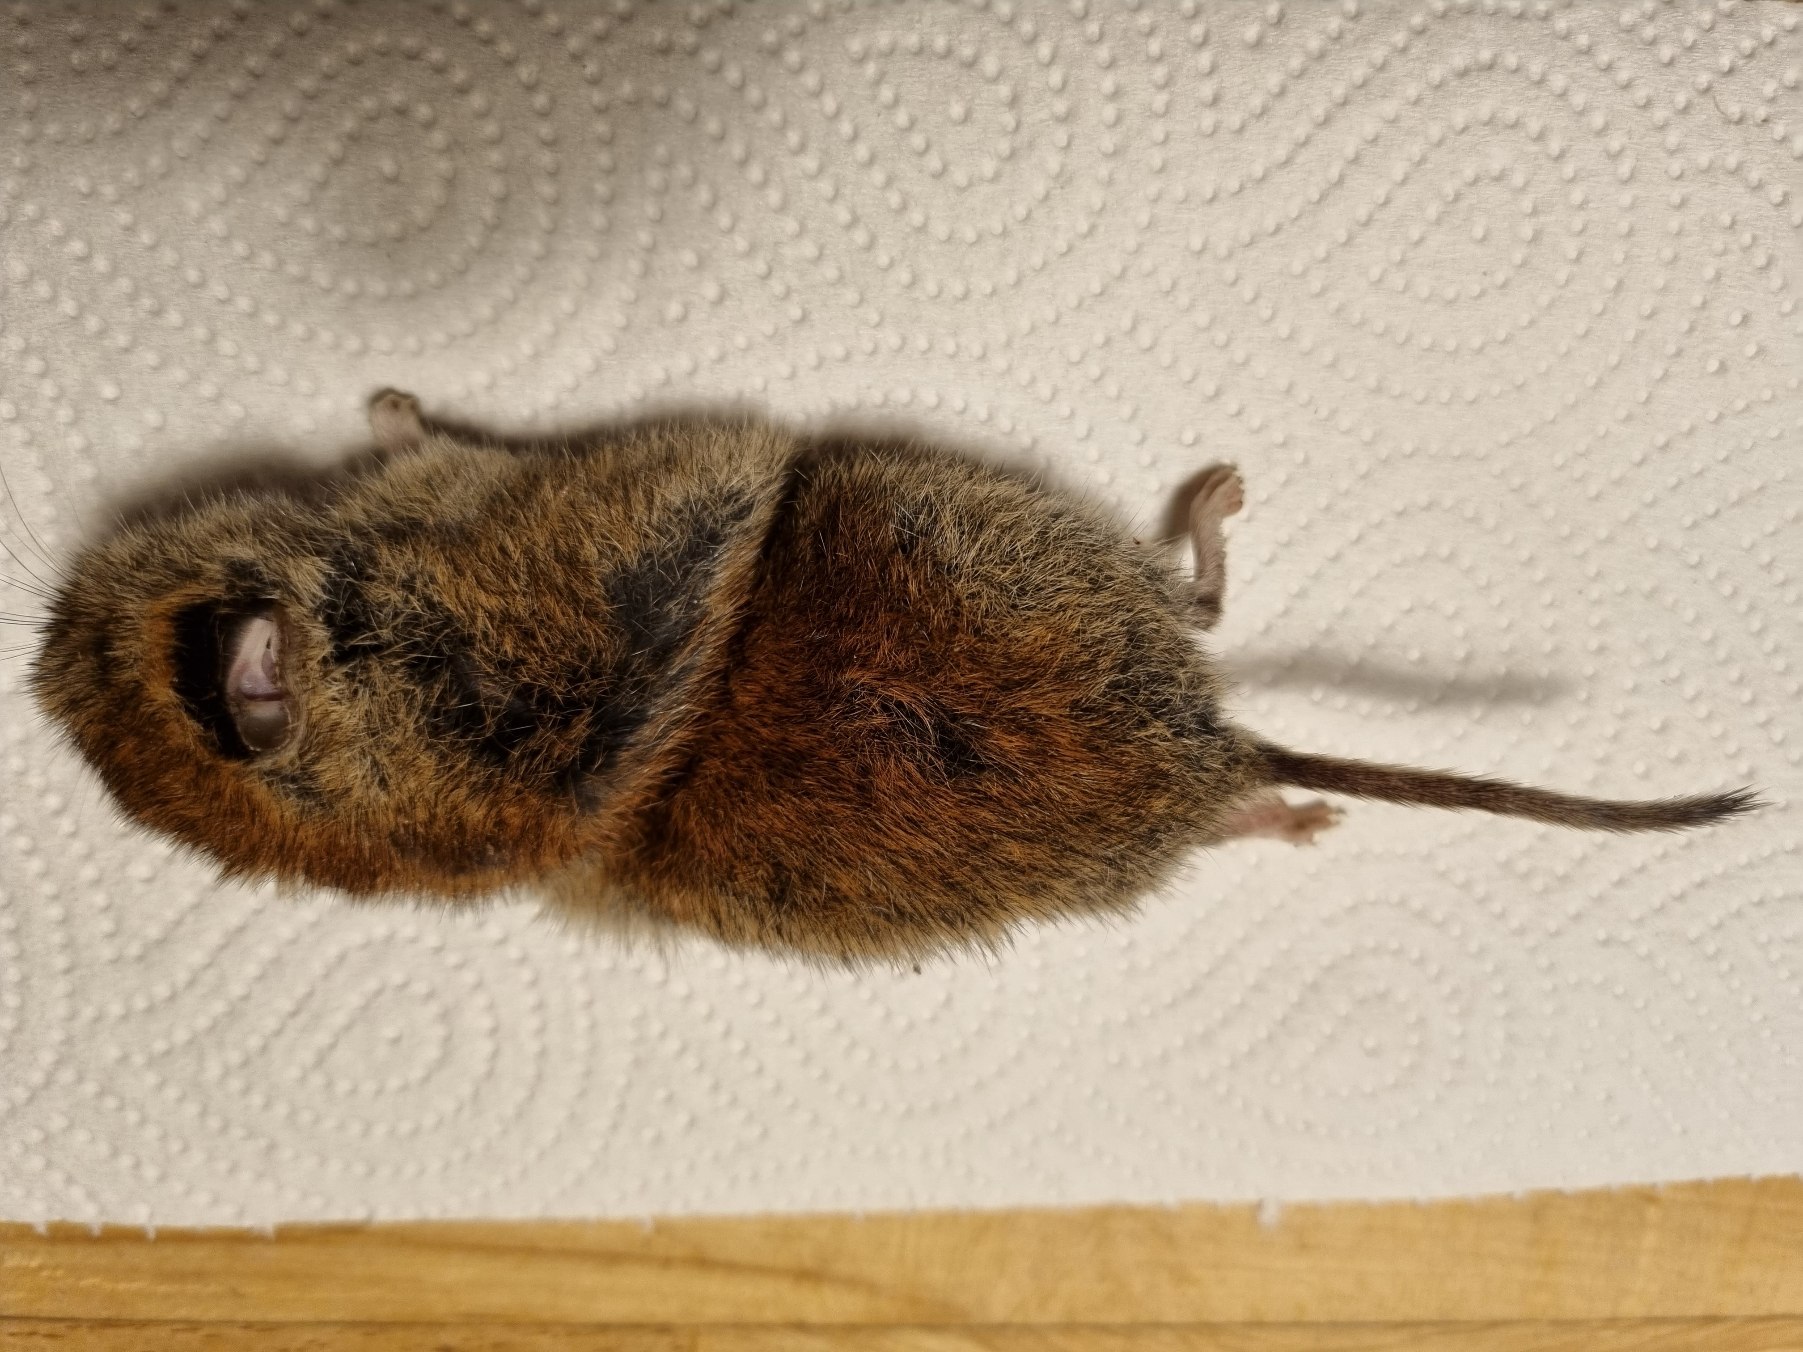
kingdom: Animalia
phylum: Chordata
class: Mammalia
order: Rodentia
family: Cricetidae
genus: Myodes
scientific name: Myodes glareolus
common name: Rødmus
